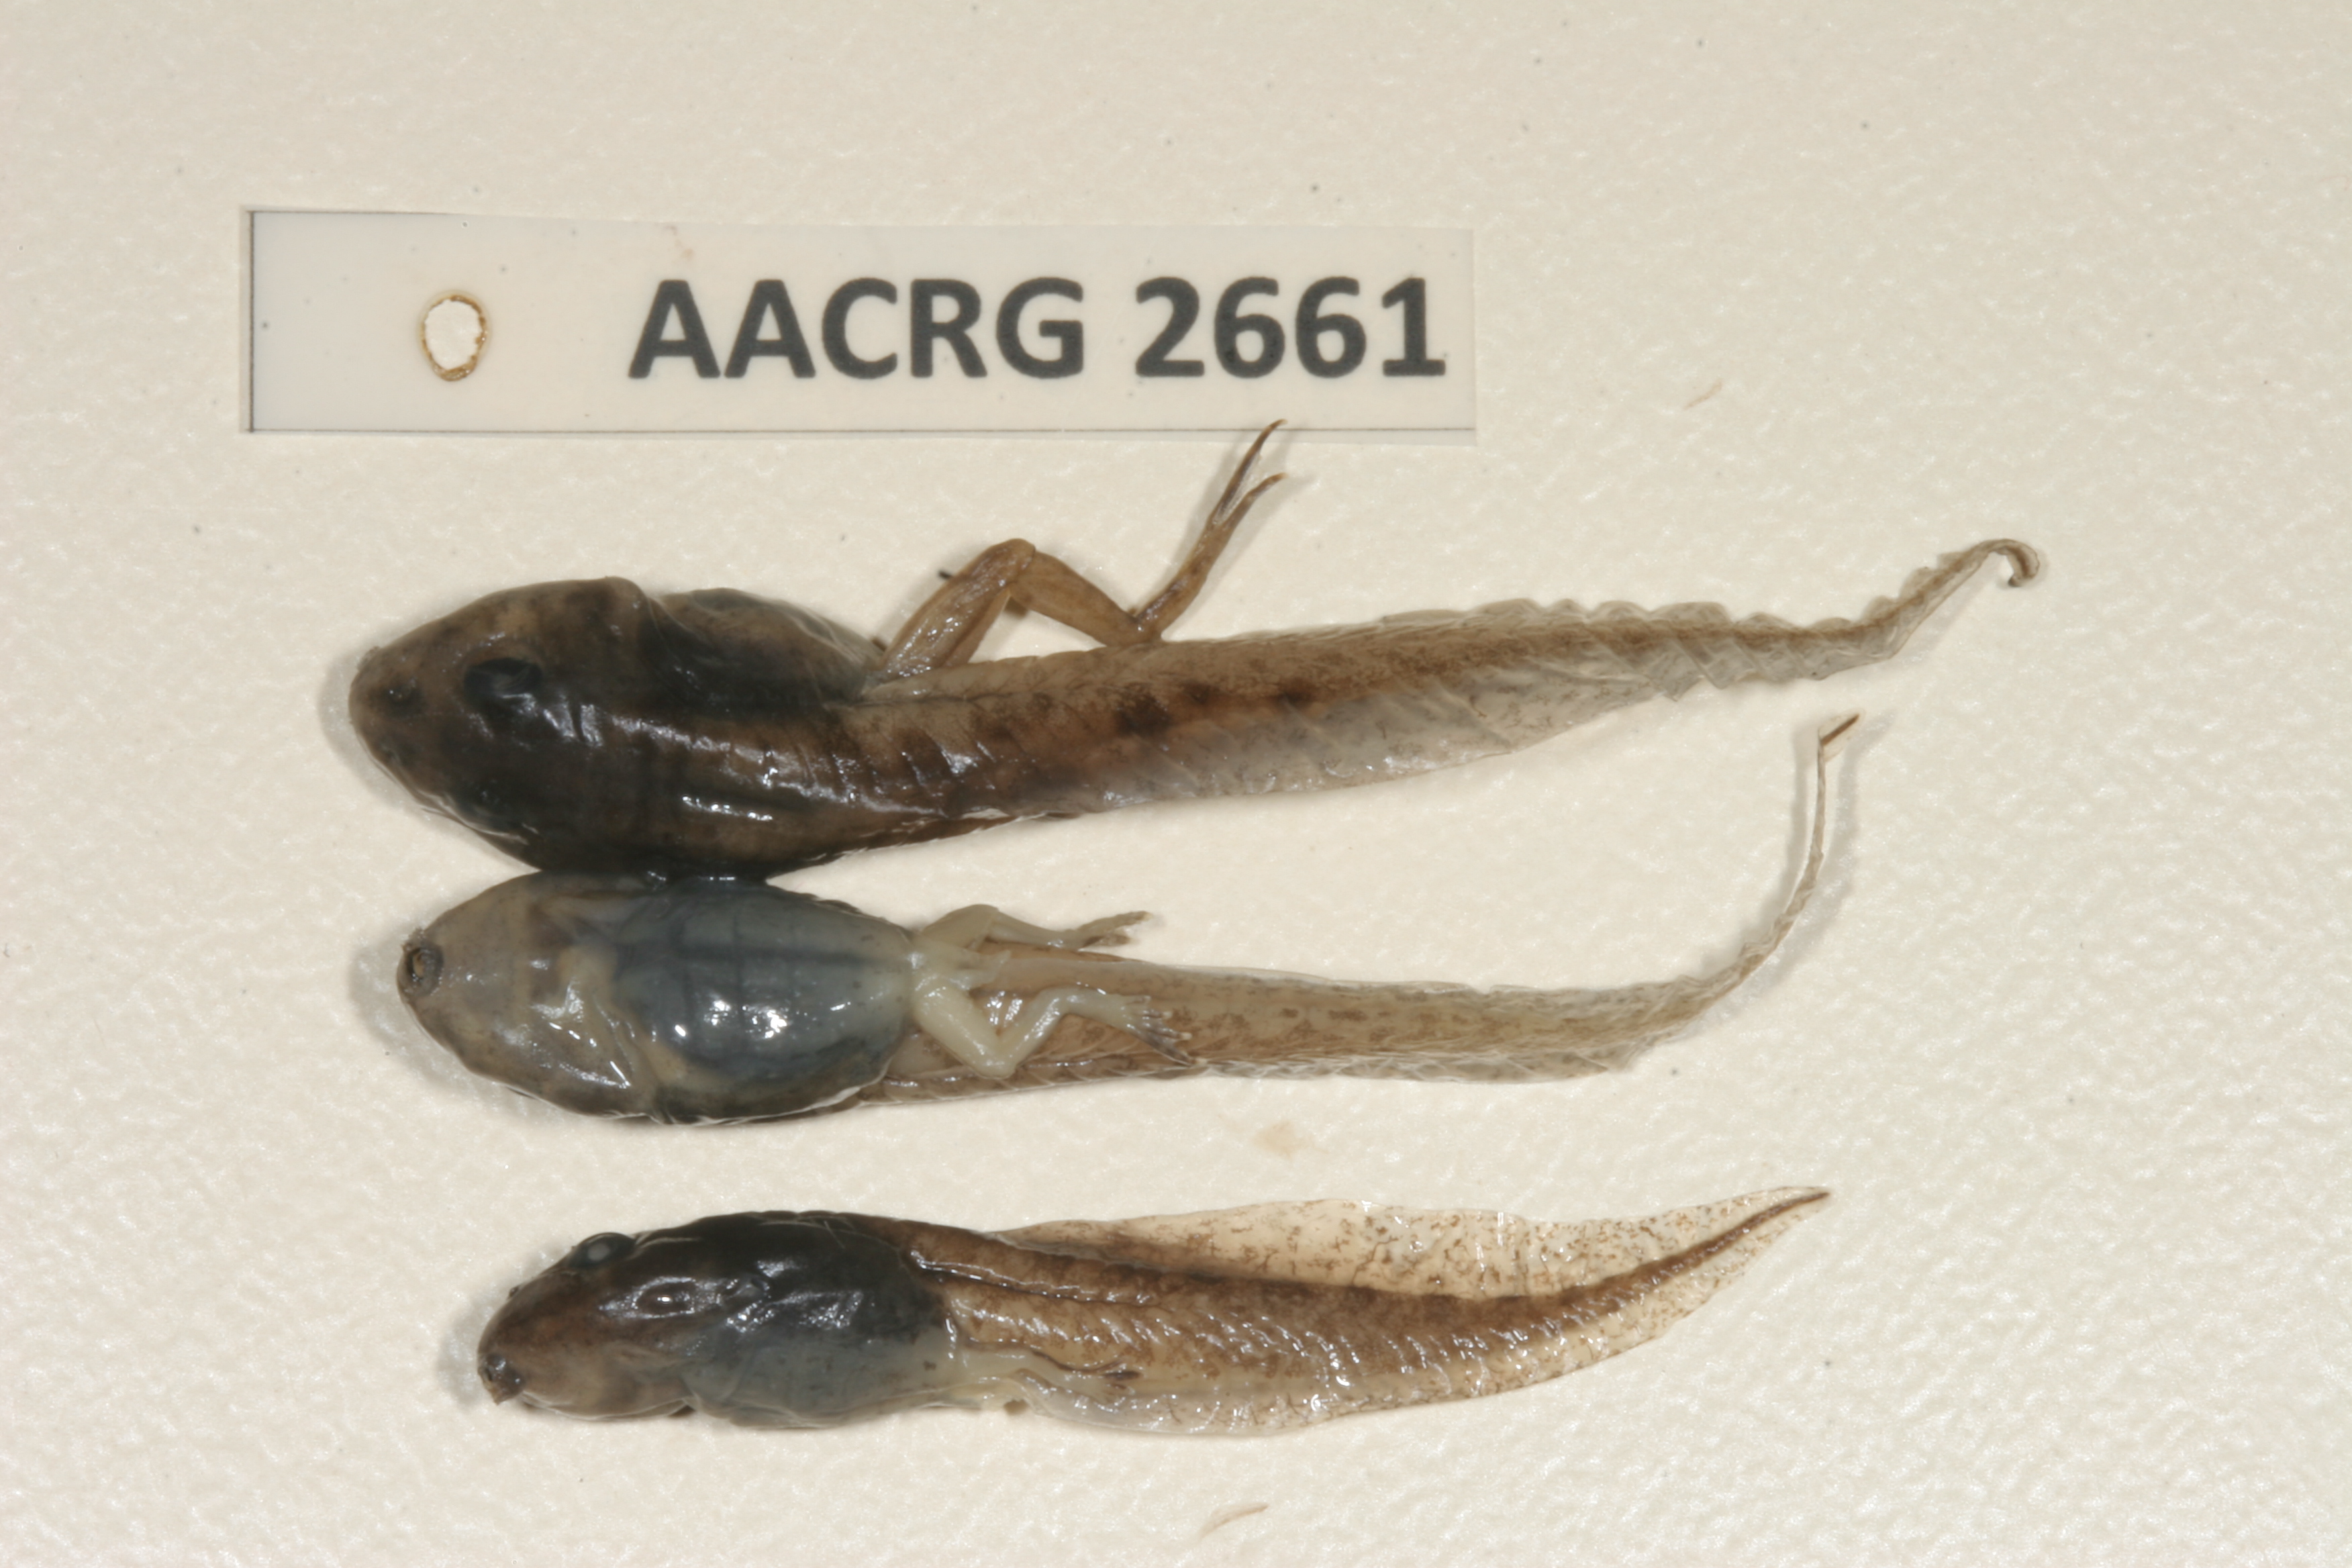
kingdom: Animalia
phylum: Chordata
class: Amphibia
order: Anura
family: Ptychadenidae
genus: Ptychadena
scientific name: Ptychadena subpunctata
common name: Bocage's grassland frog
